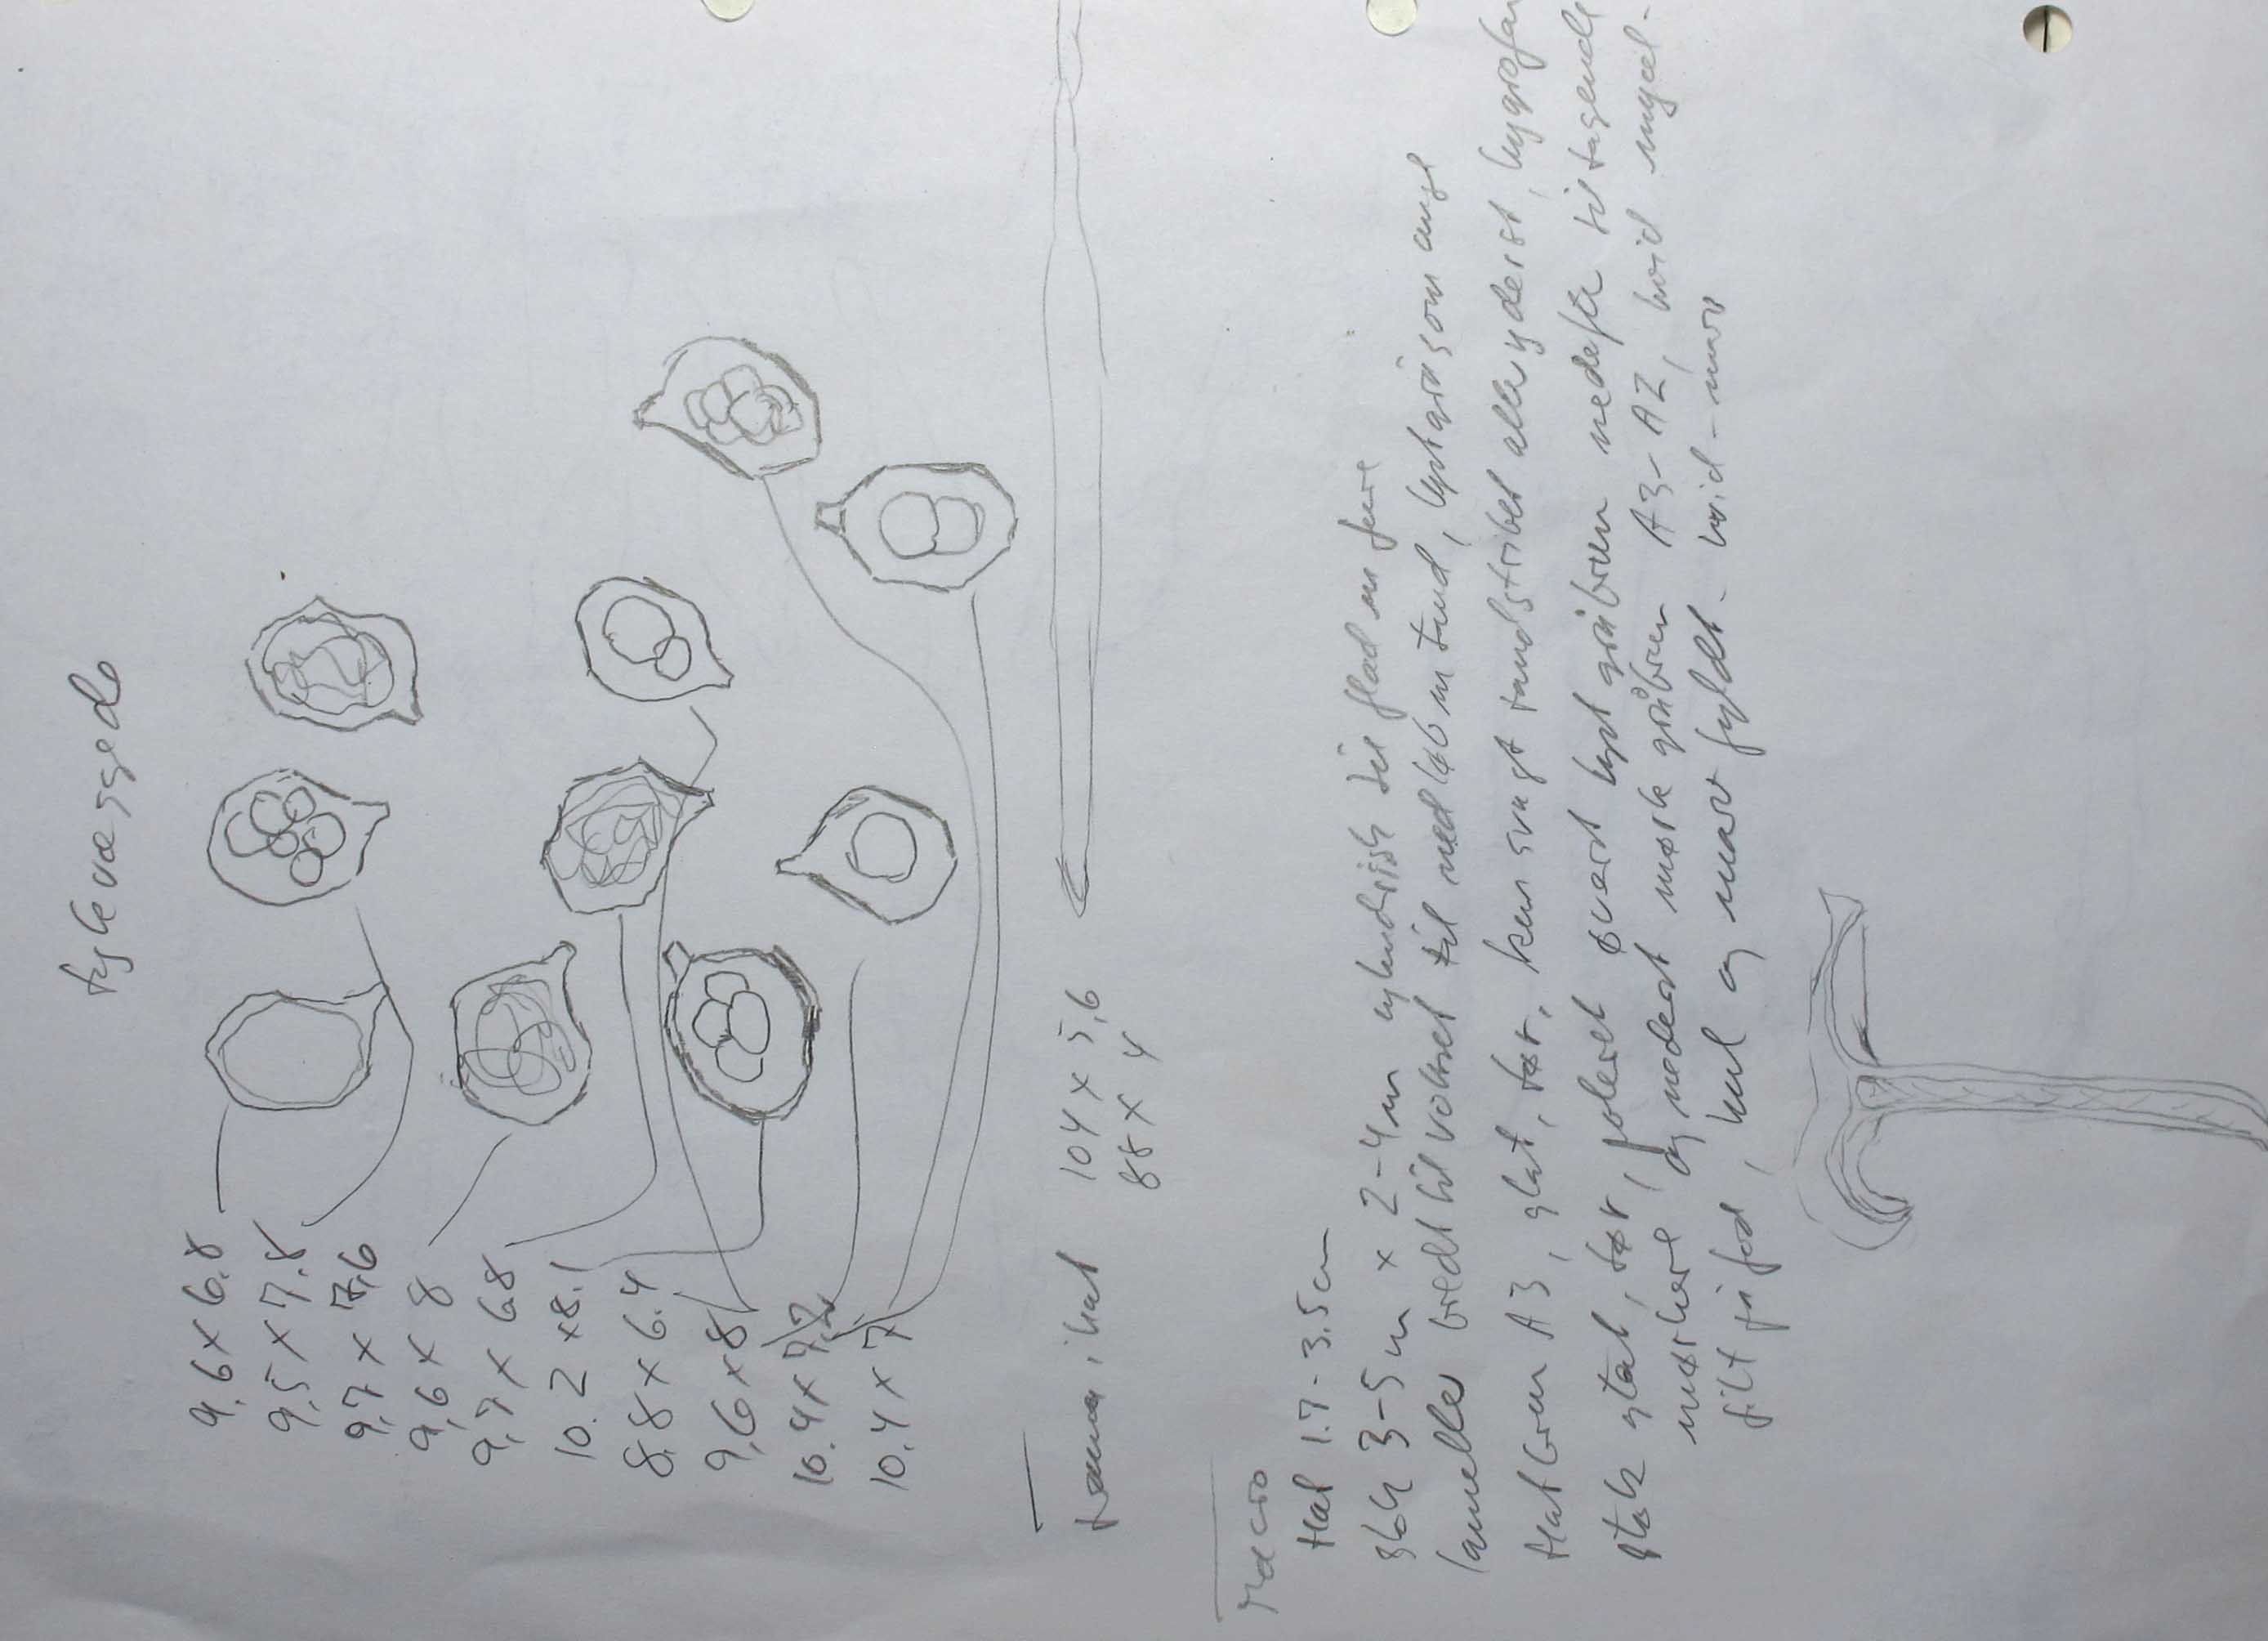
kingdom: Fungi
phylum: Basidiomycota
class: Agaricomycetes
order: Agaricales
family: Entolomataceae
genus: Entoloma
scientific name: Entoloma sororpratulense
